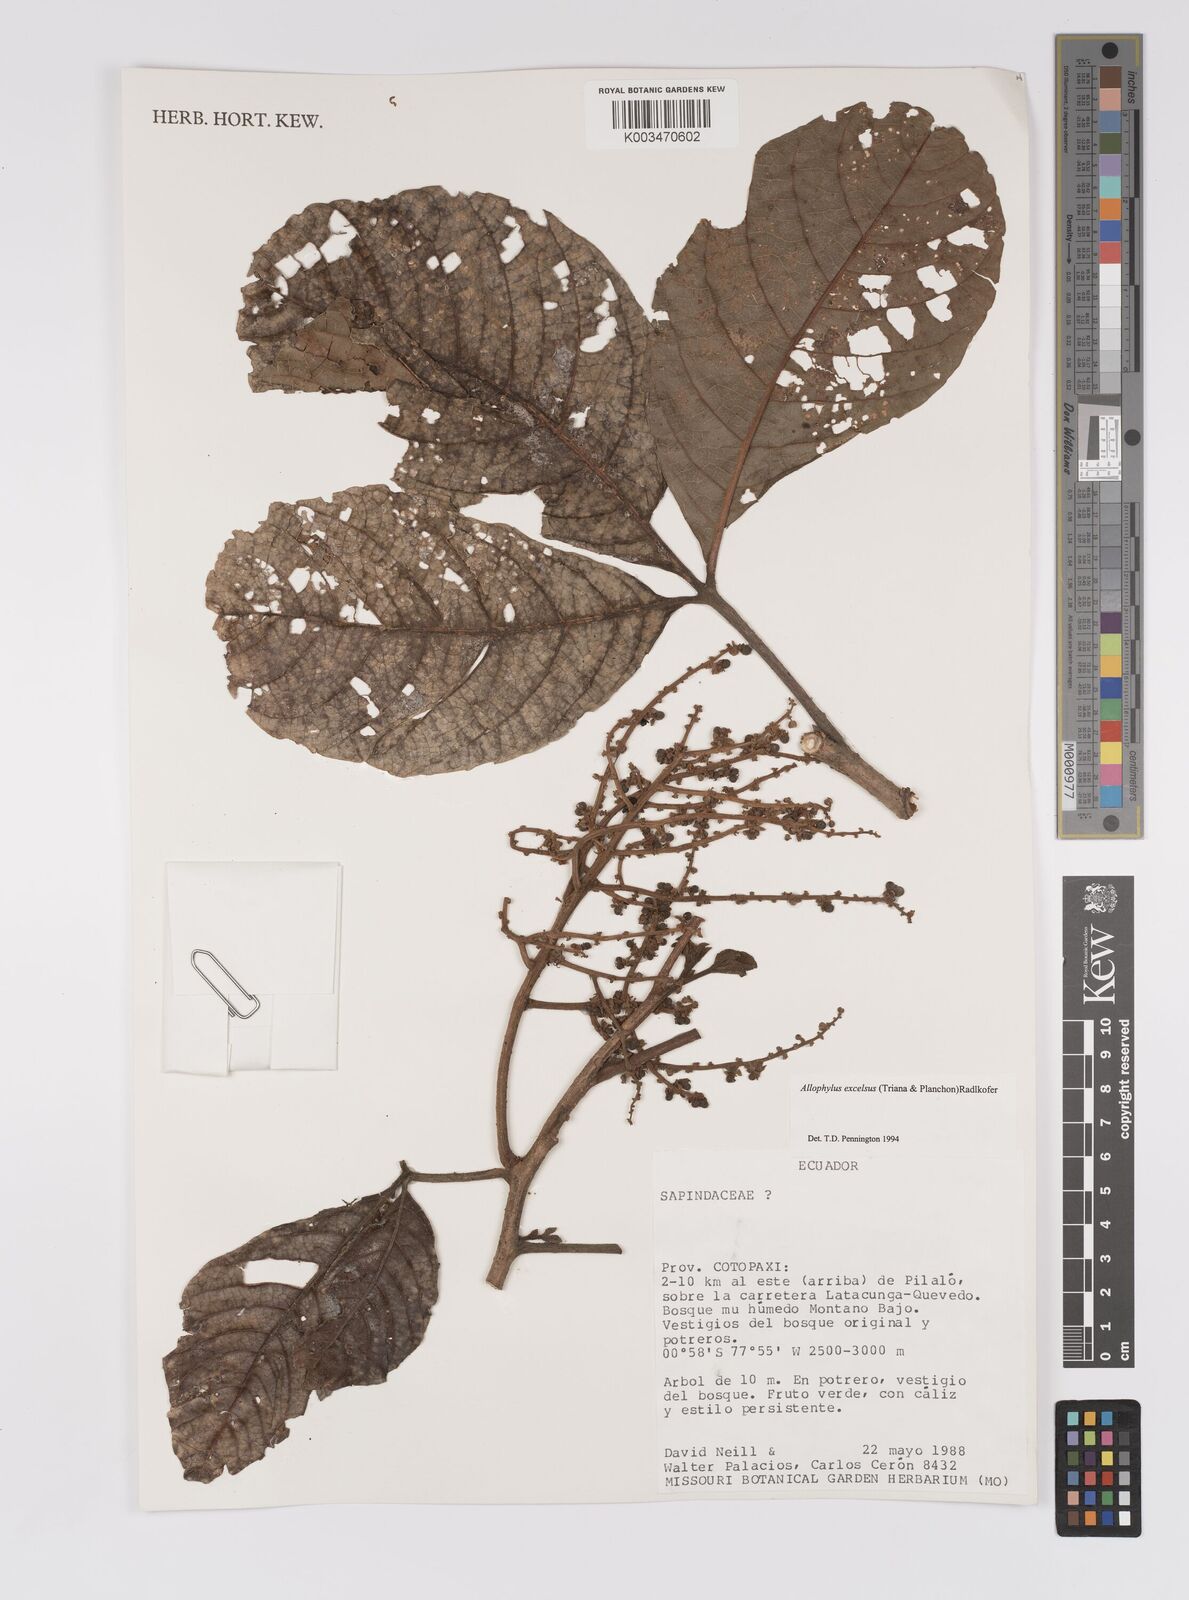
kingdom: Plantae
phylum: Tracheophyta
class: Magnoliopsida
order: Sapindales
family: Sapindaceae
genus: Allophylus
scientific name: Allophylus excelsus
